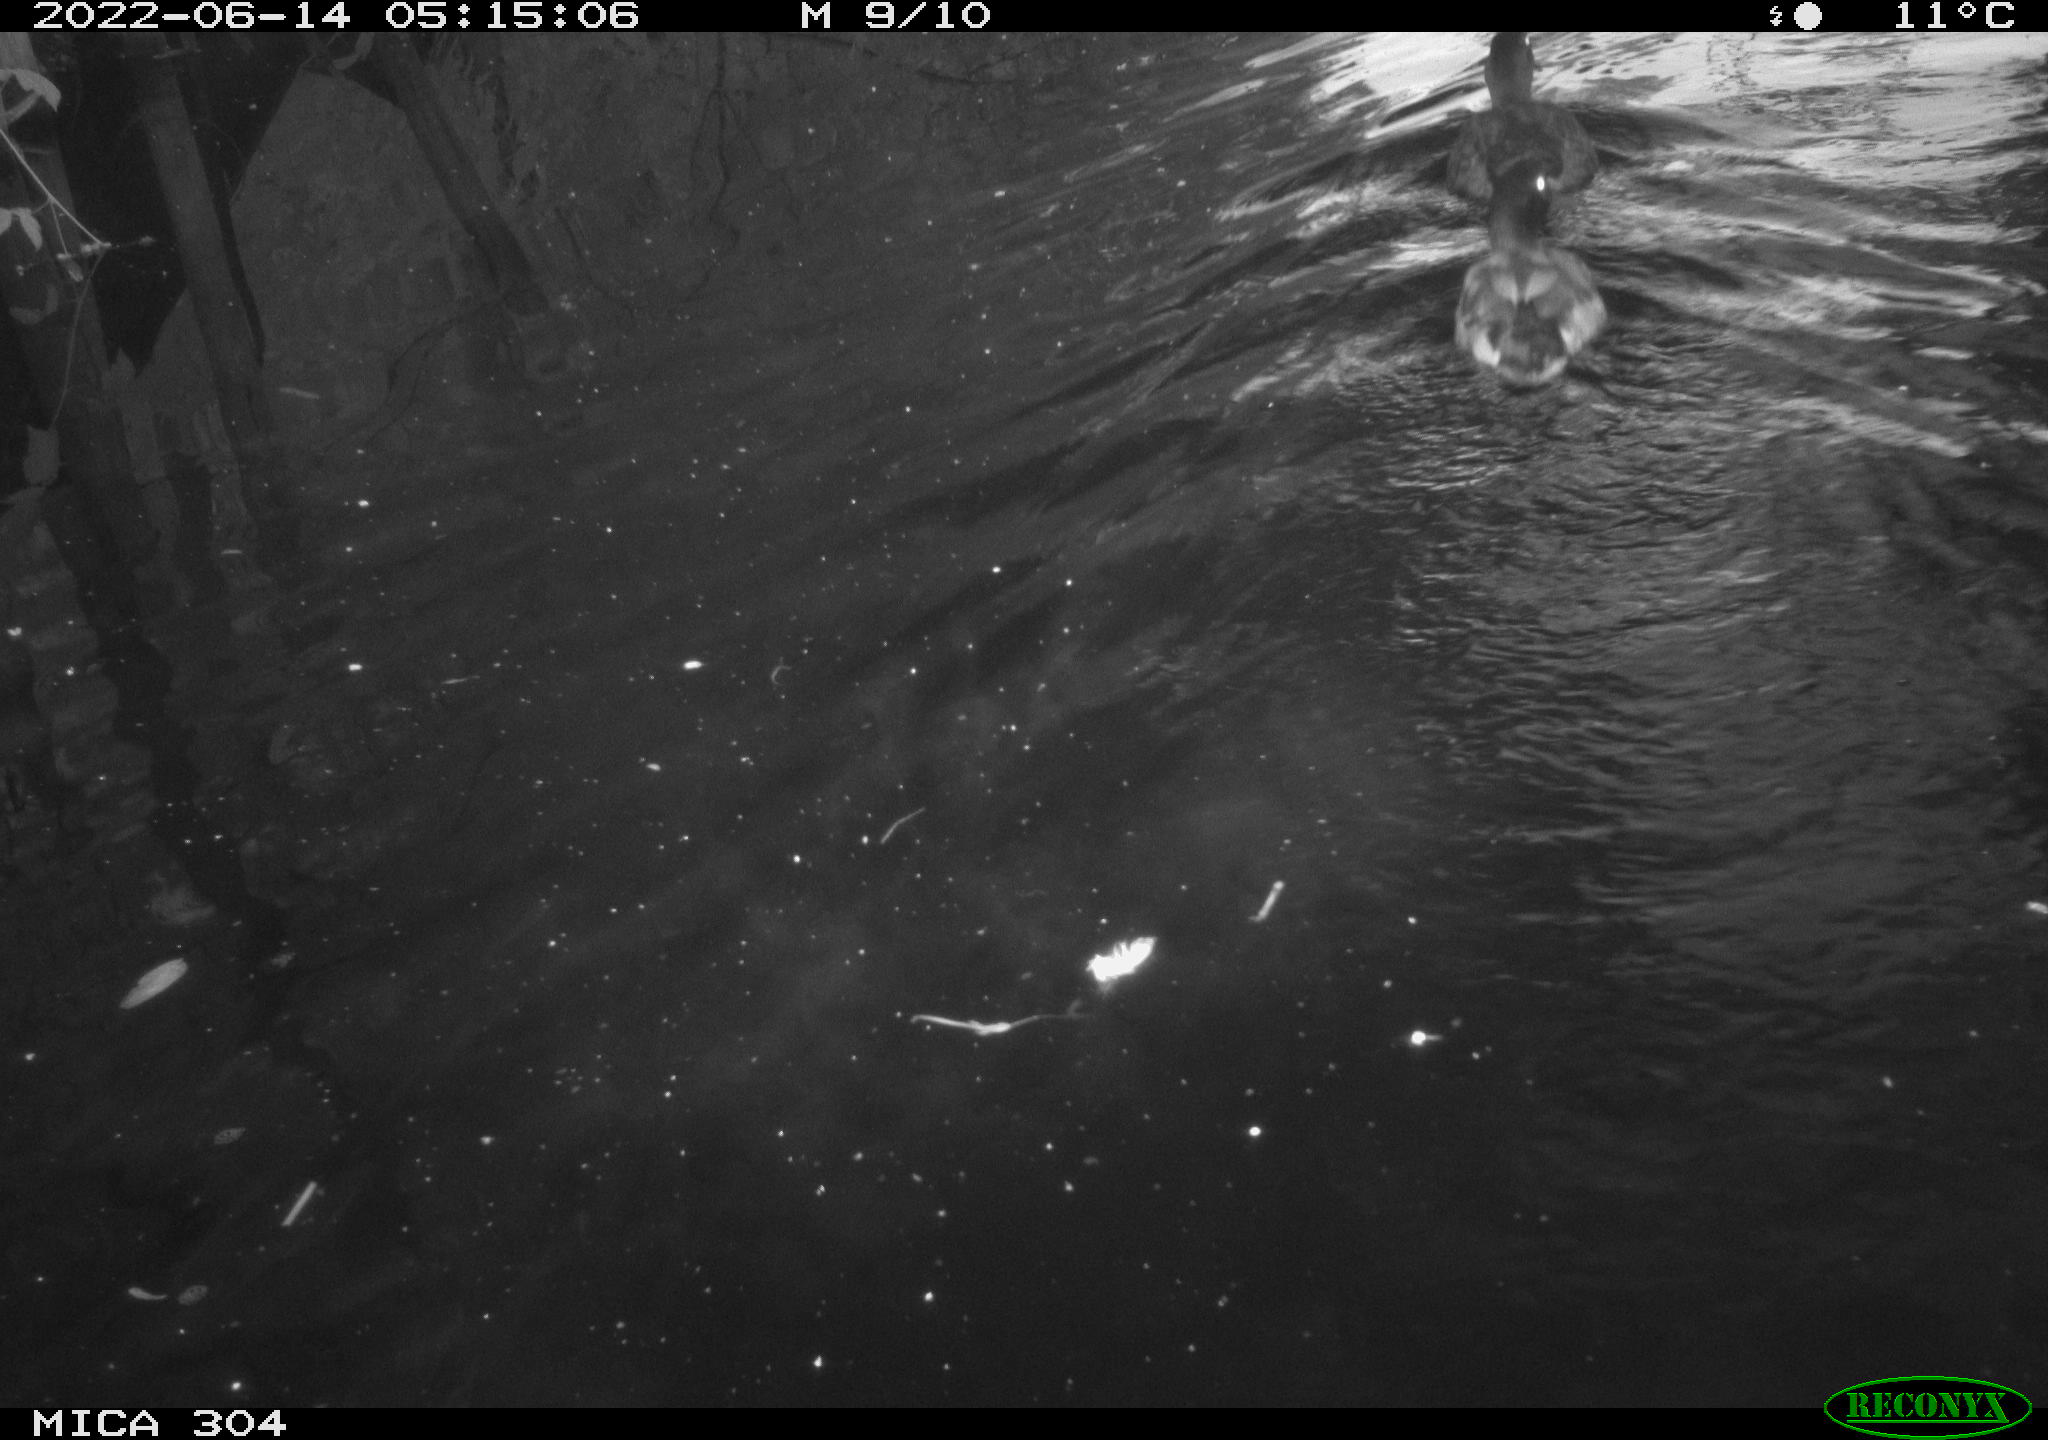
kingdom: Animalia
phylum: Chordata
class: Aves
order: Anseriformes
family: Anatidae
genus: Anas
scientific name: Anas platyrhynchos
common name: Mallard
